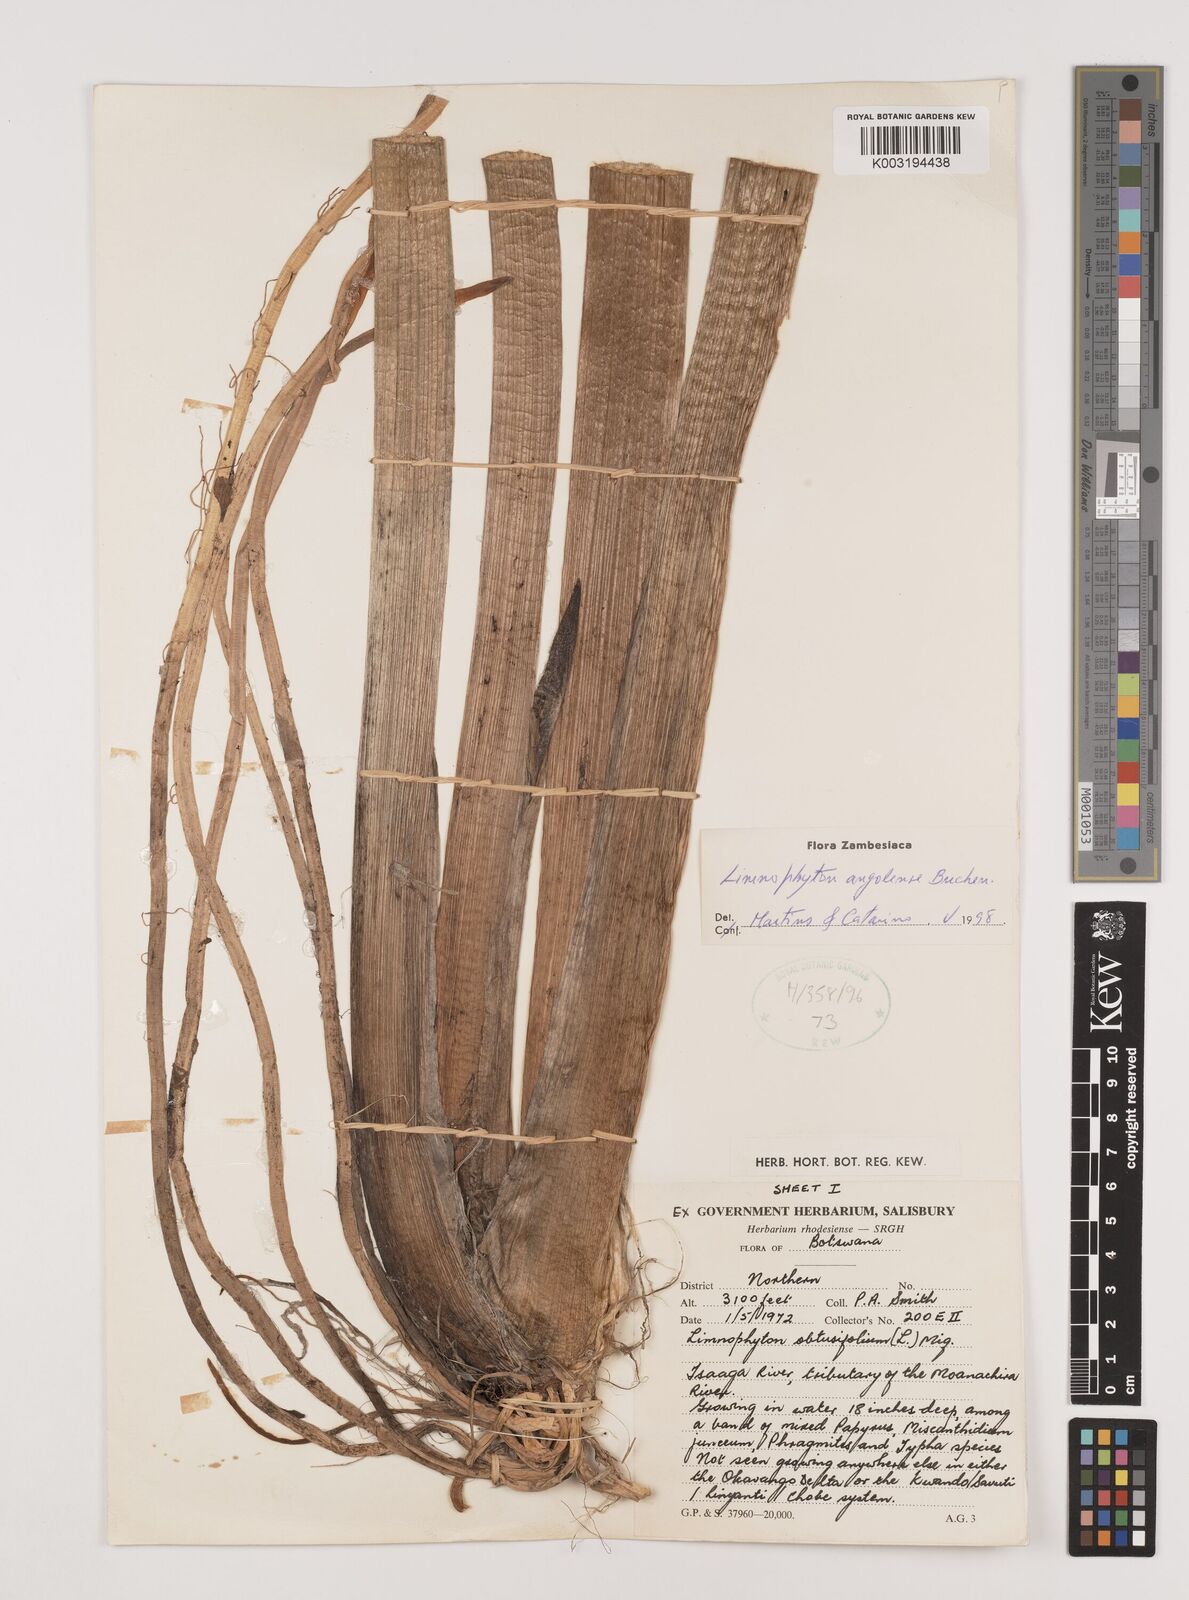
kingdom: Plantae
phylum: Tracheophyta
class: Liliopsida
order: Alismatales
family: Alismataceae
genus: Limnophyton
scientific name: Limnophyton angolense
